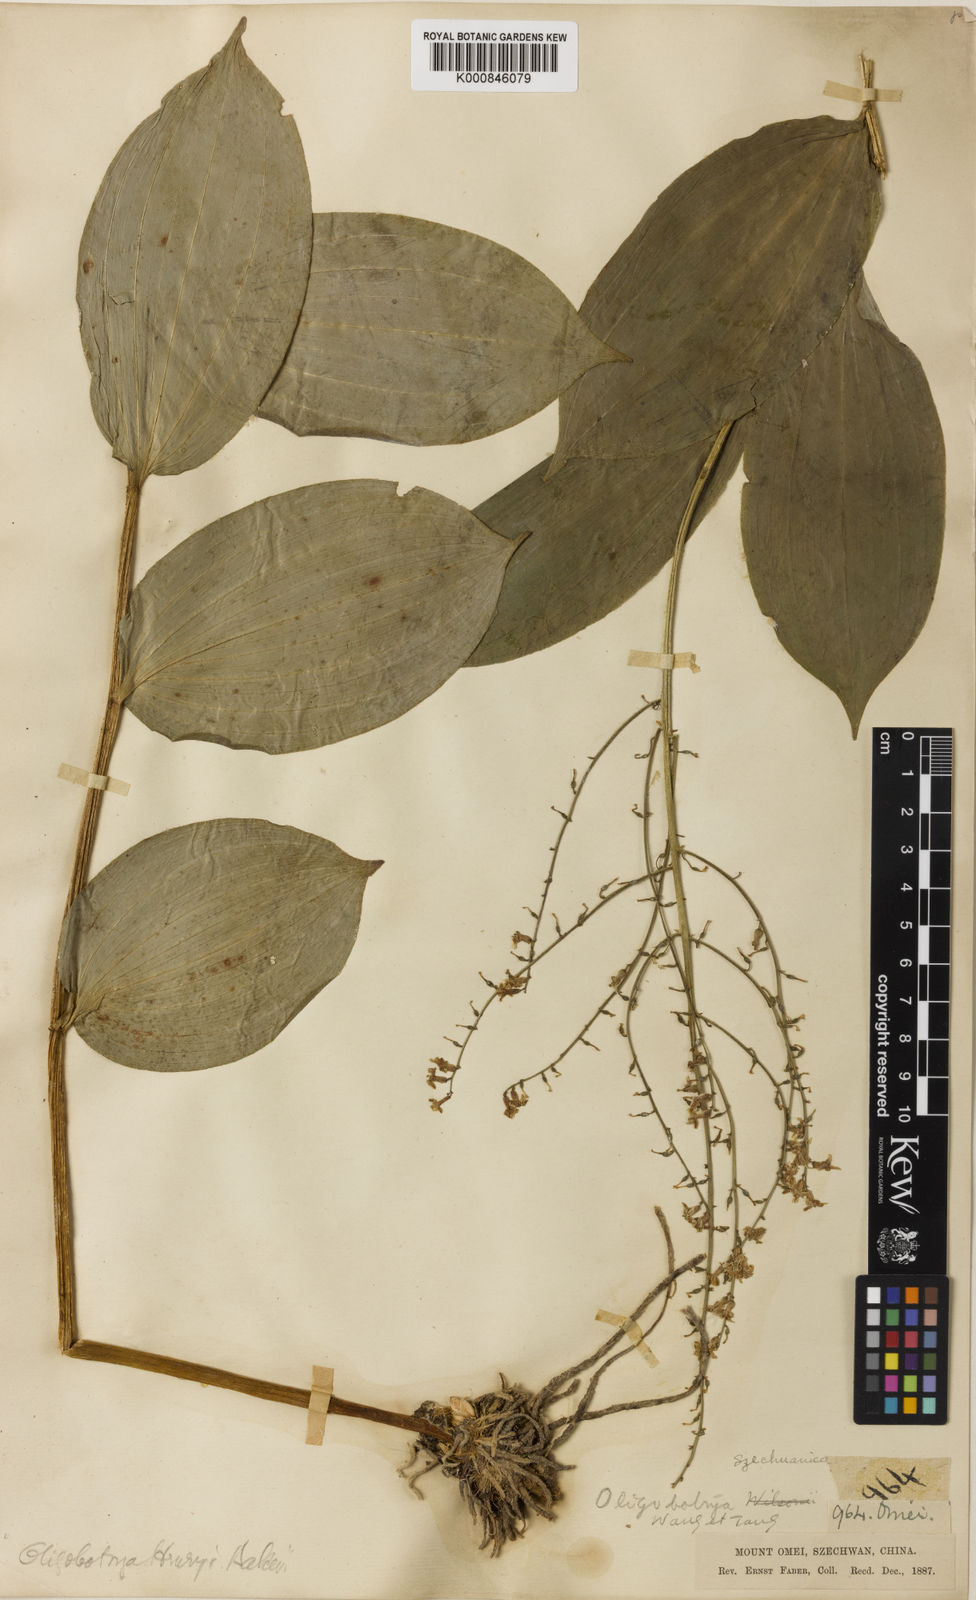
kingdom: Plantae
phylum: Tracheophyta
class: Liliopsida
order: Asparagales
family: Asparagaceae
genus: Maianthemum
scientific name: Maianthemum szechuanicum
